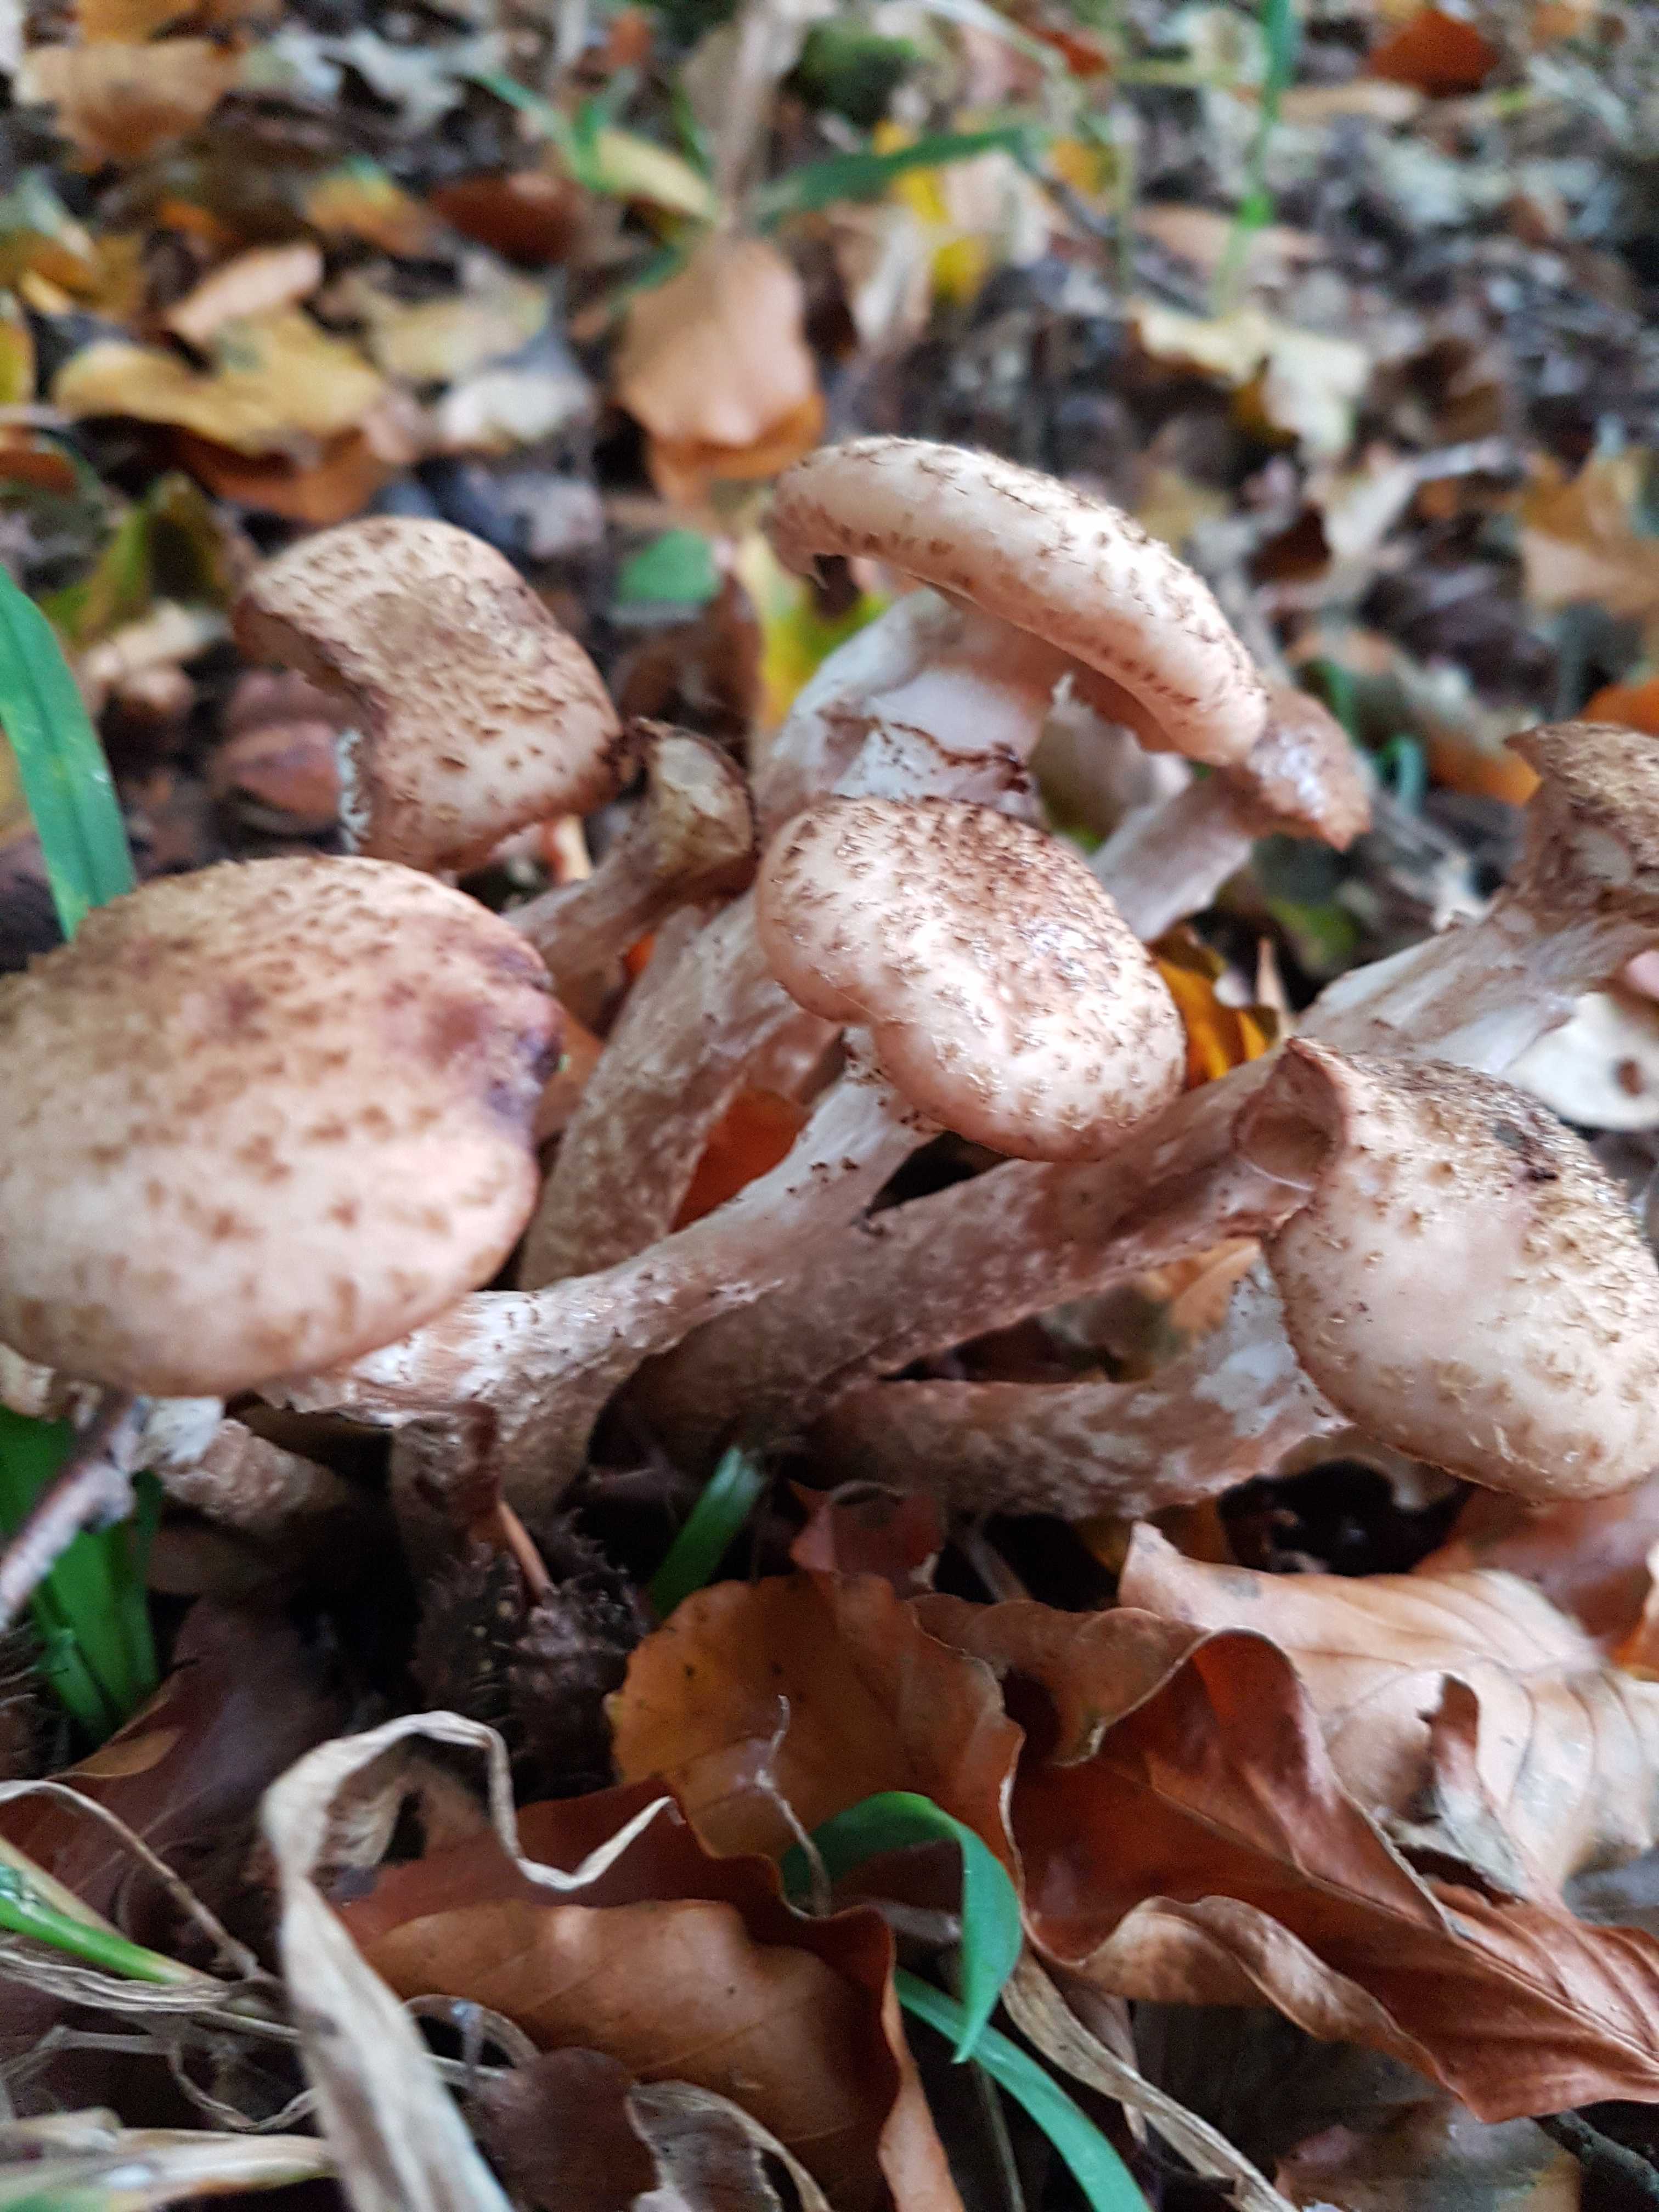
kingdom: Fungi
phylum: Basidiomycota
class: Agaricomycetes
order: Agaricales
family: Physalacriaceae
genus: Armillaria
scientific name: Armillaria lutea
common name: køllestokket honningsvamp
